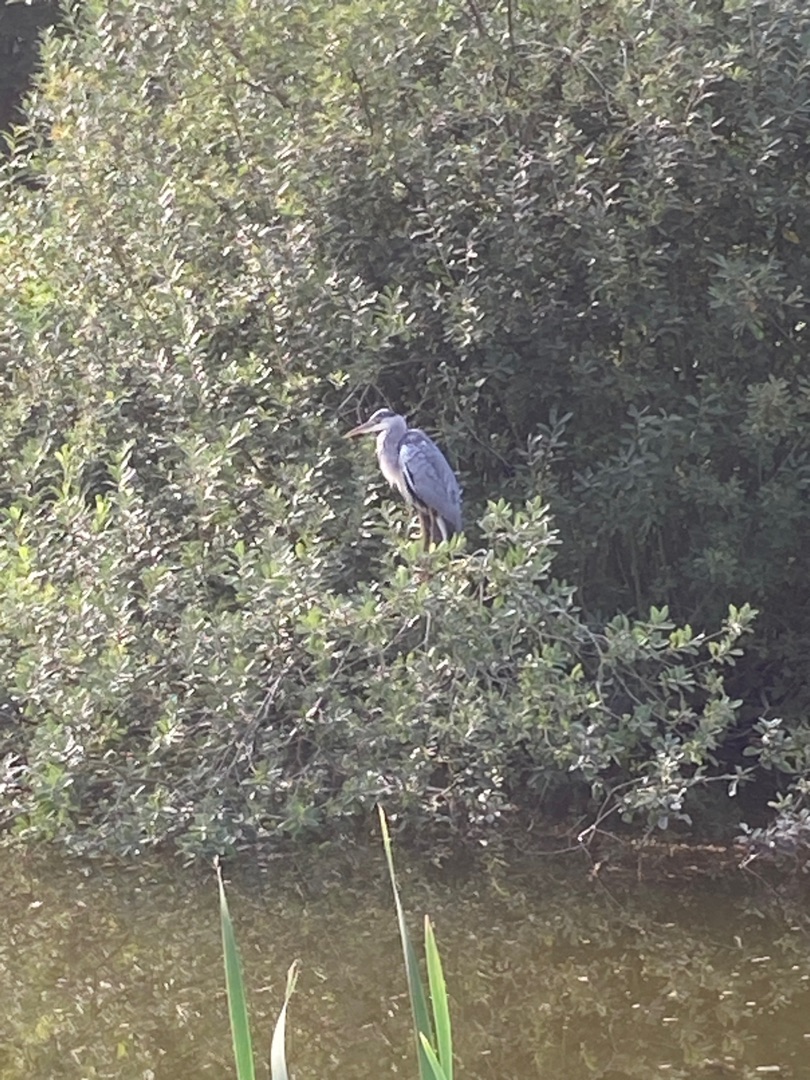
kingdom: Animalia
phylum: Chordata
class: Aves
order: Pelecaniformes
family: Ardeidae
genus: Ardea
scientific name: Ardea cinerea
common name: Fiskehejre
